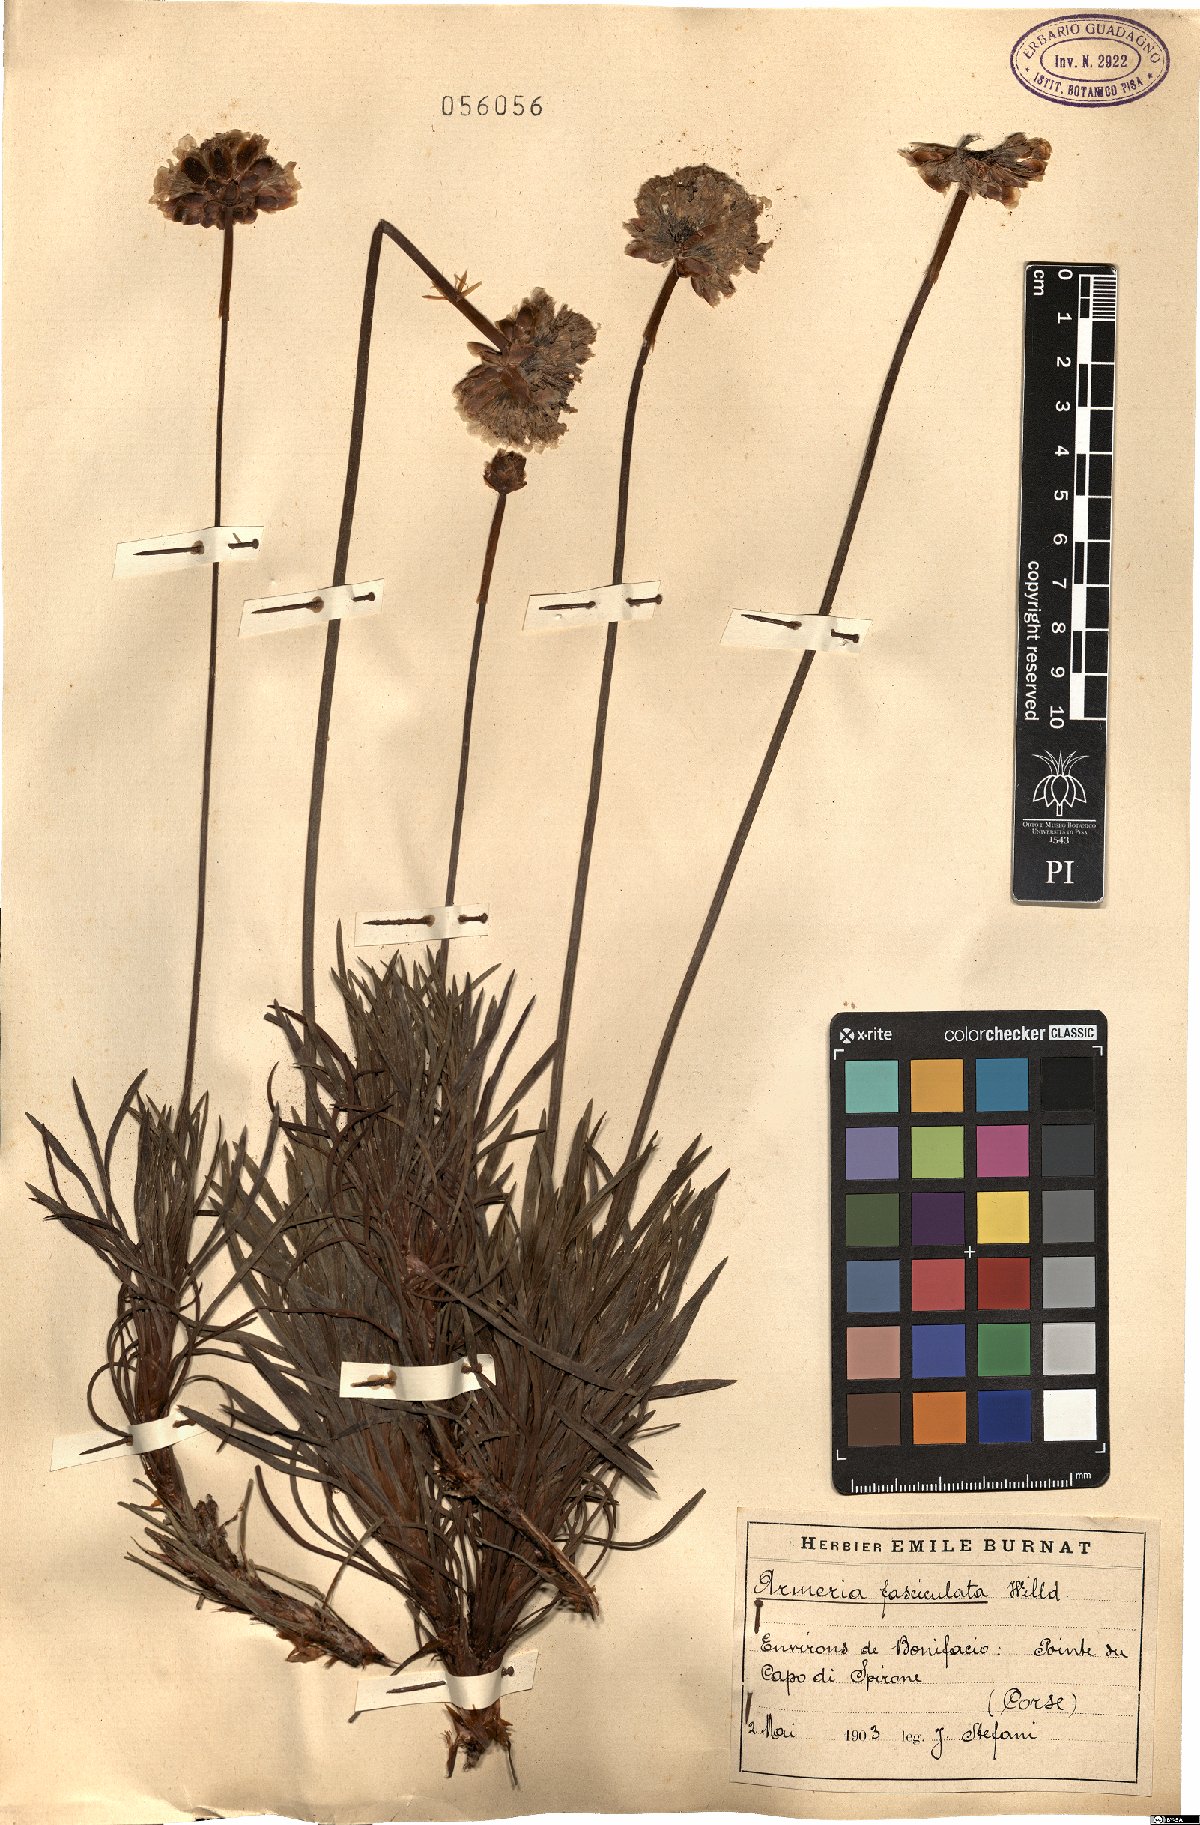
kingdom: Plantae
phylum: Tracheophyta
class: Magnoliopsida
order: Caryophyllales
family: Plumbaginaceae
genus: Armeria
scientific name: Armeria pungens
